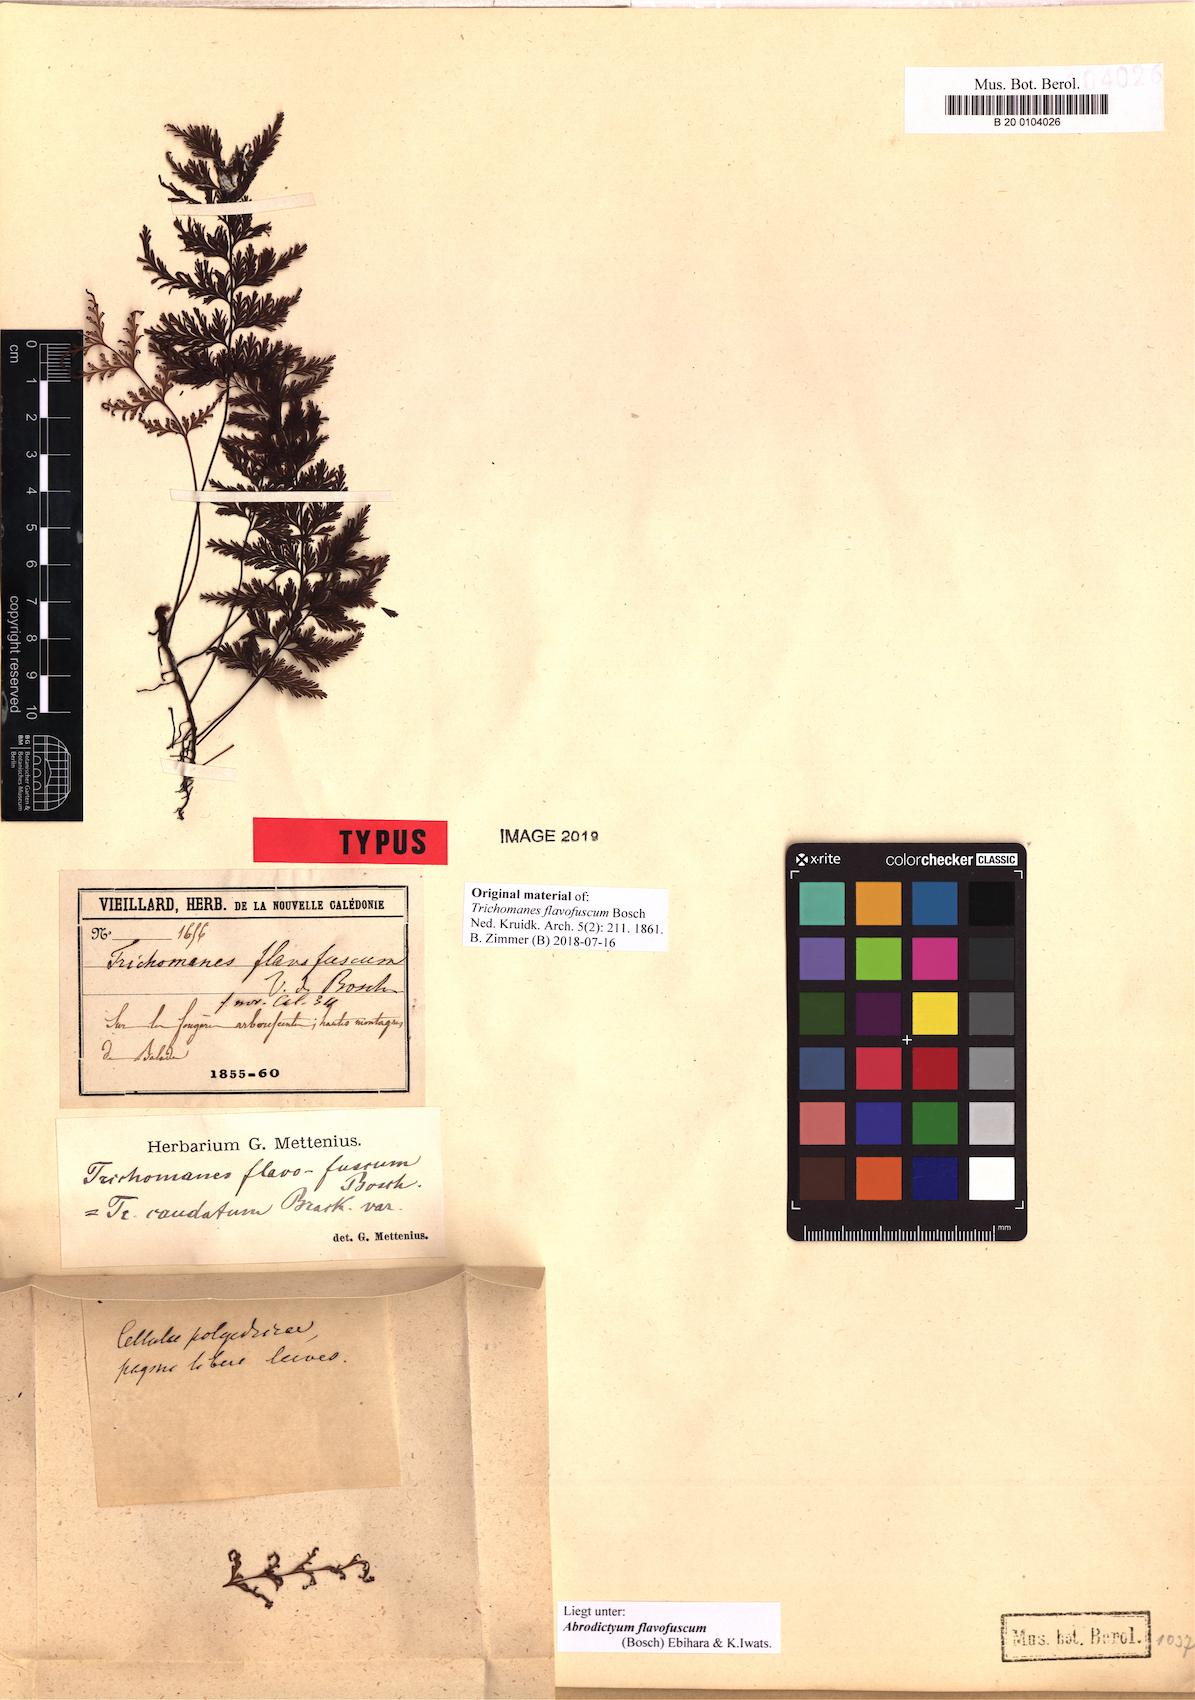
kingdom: Plantae
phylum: Tracheophyta
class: Polypodiopsida
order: Hymenophyllales
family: Hymenophyllaceae
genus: Abrodictyum
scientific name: Abrodictyum flavofuscum
